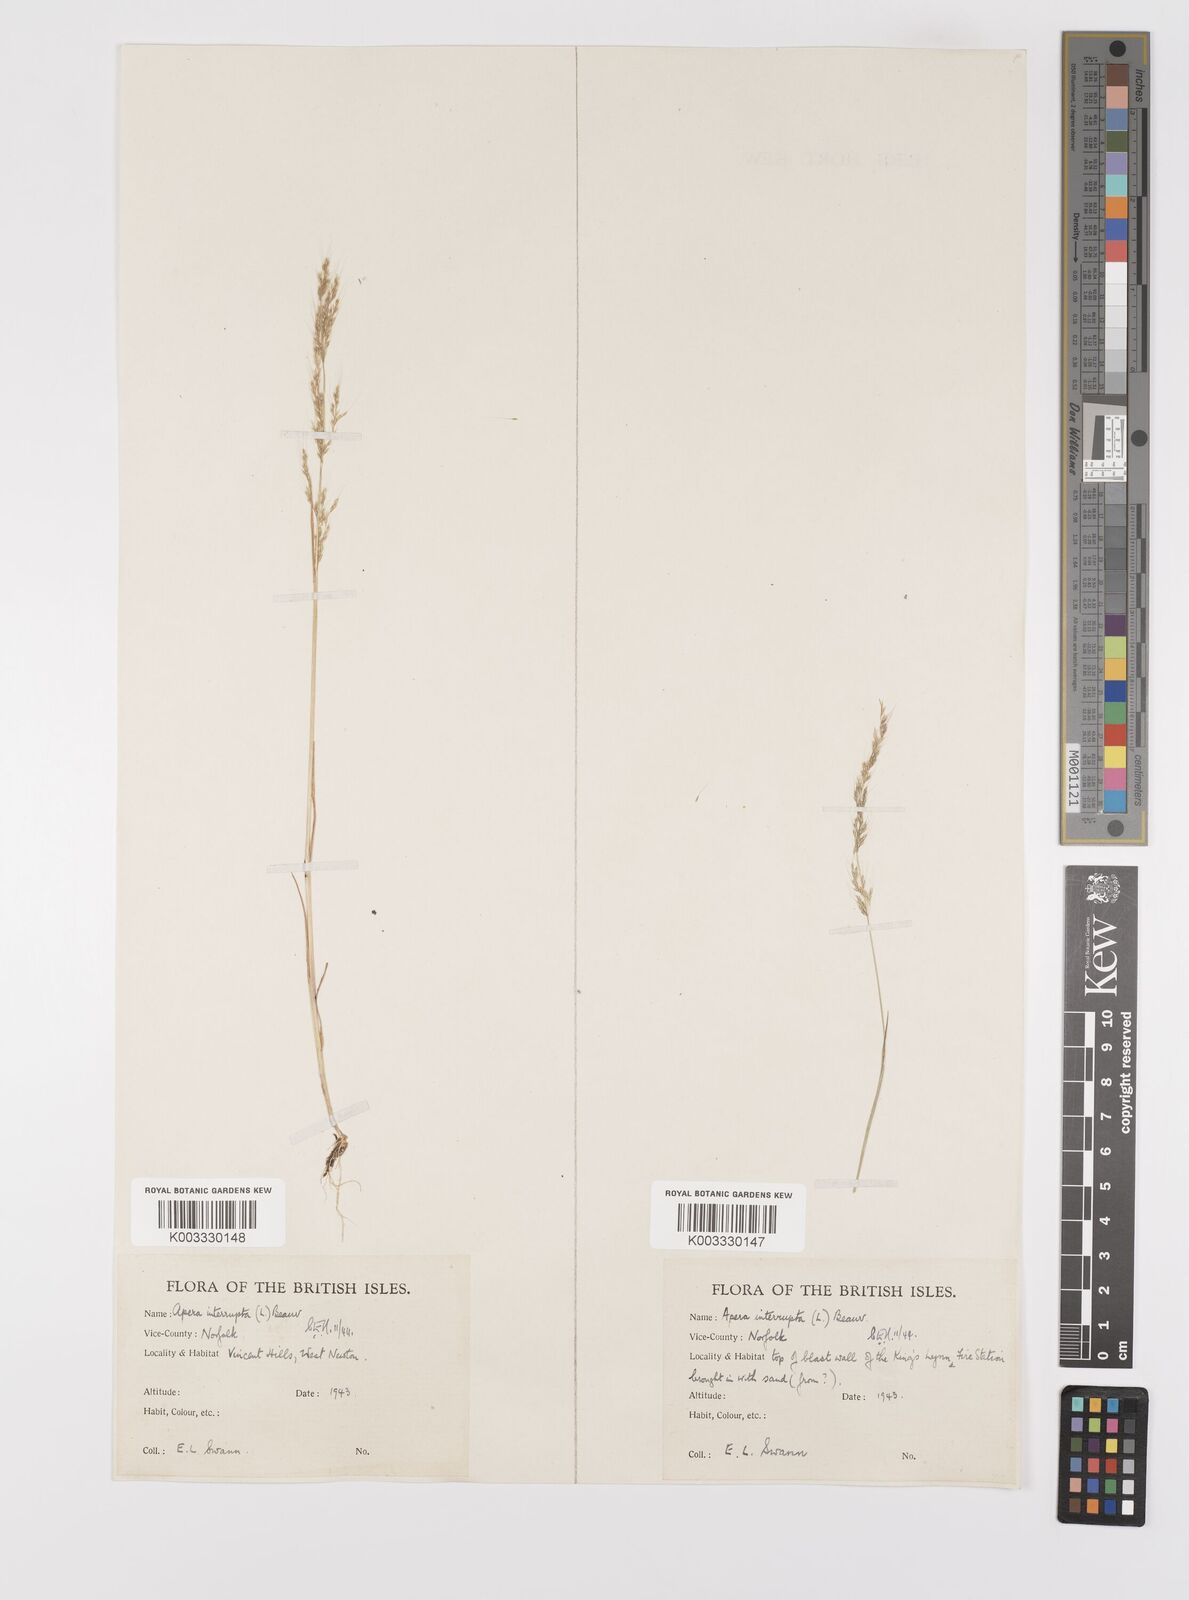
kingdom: Plantae
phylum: Tracheophyta
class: Liliopsida
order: Poales
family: Poaceae
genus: Apera
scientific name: Apera interrupta
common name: Dense silky-bent
